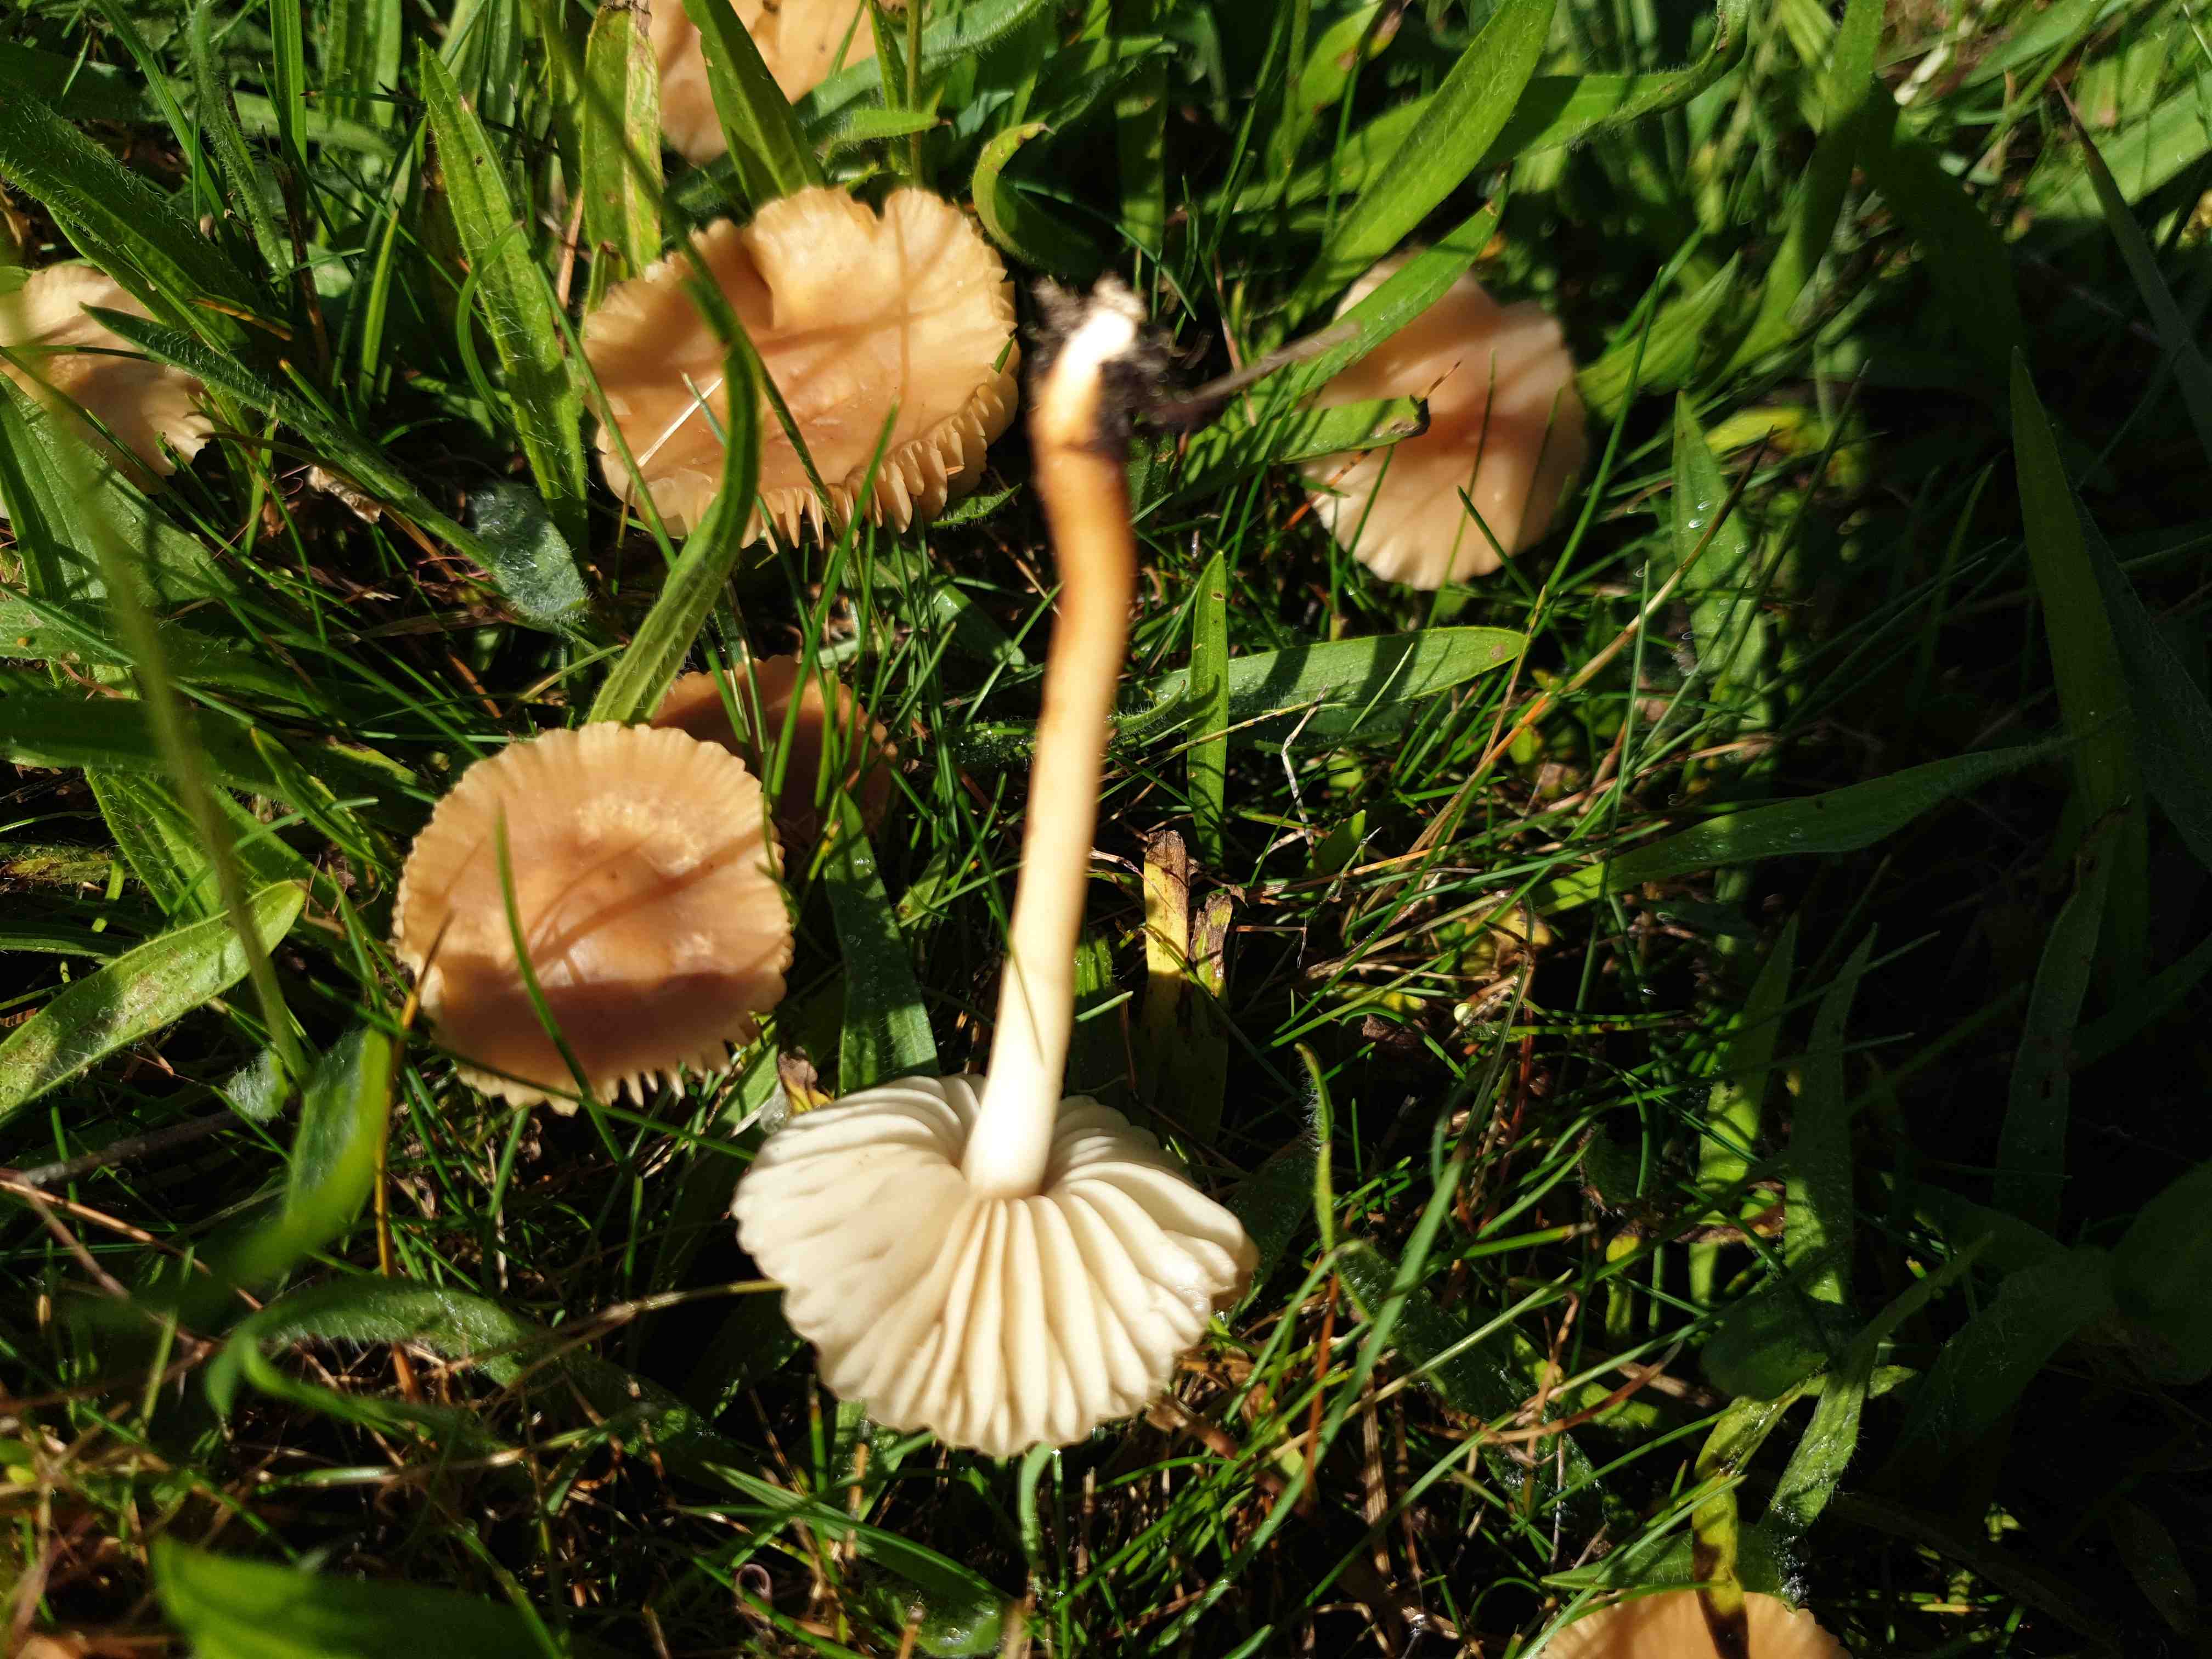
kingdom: Fungi
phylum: Basidiomycota
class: Agaricomycetes
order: Agaricales
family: Marasmiaceae
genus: Marasmius
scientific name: Marasmius oreades
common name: elledans-bruskhat
